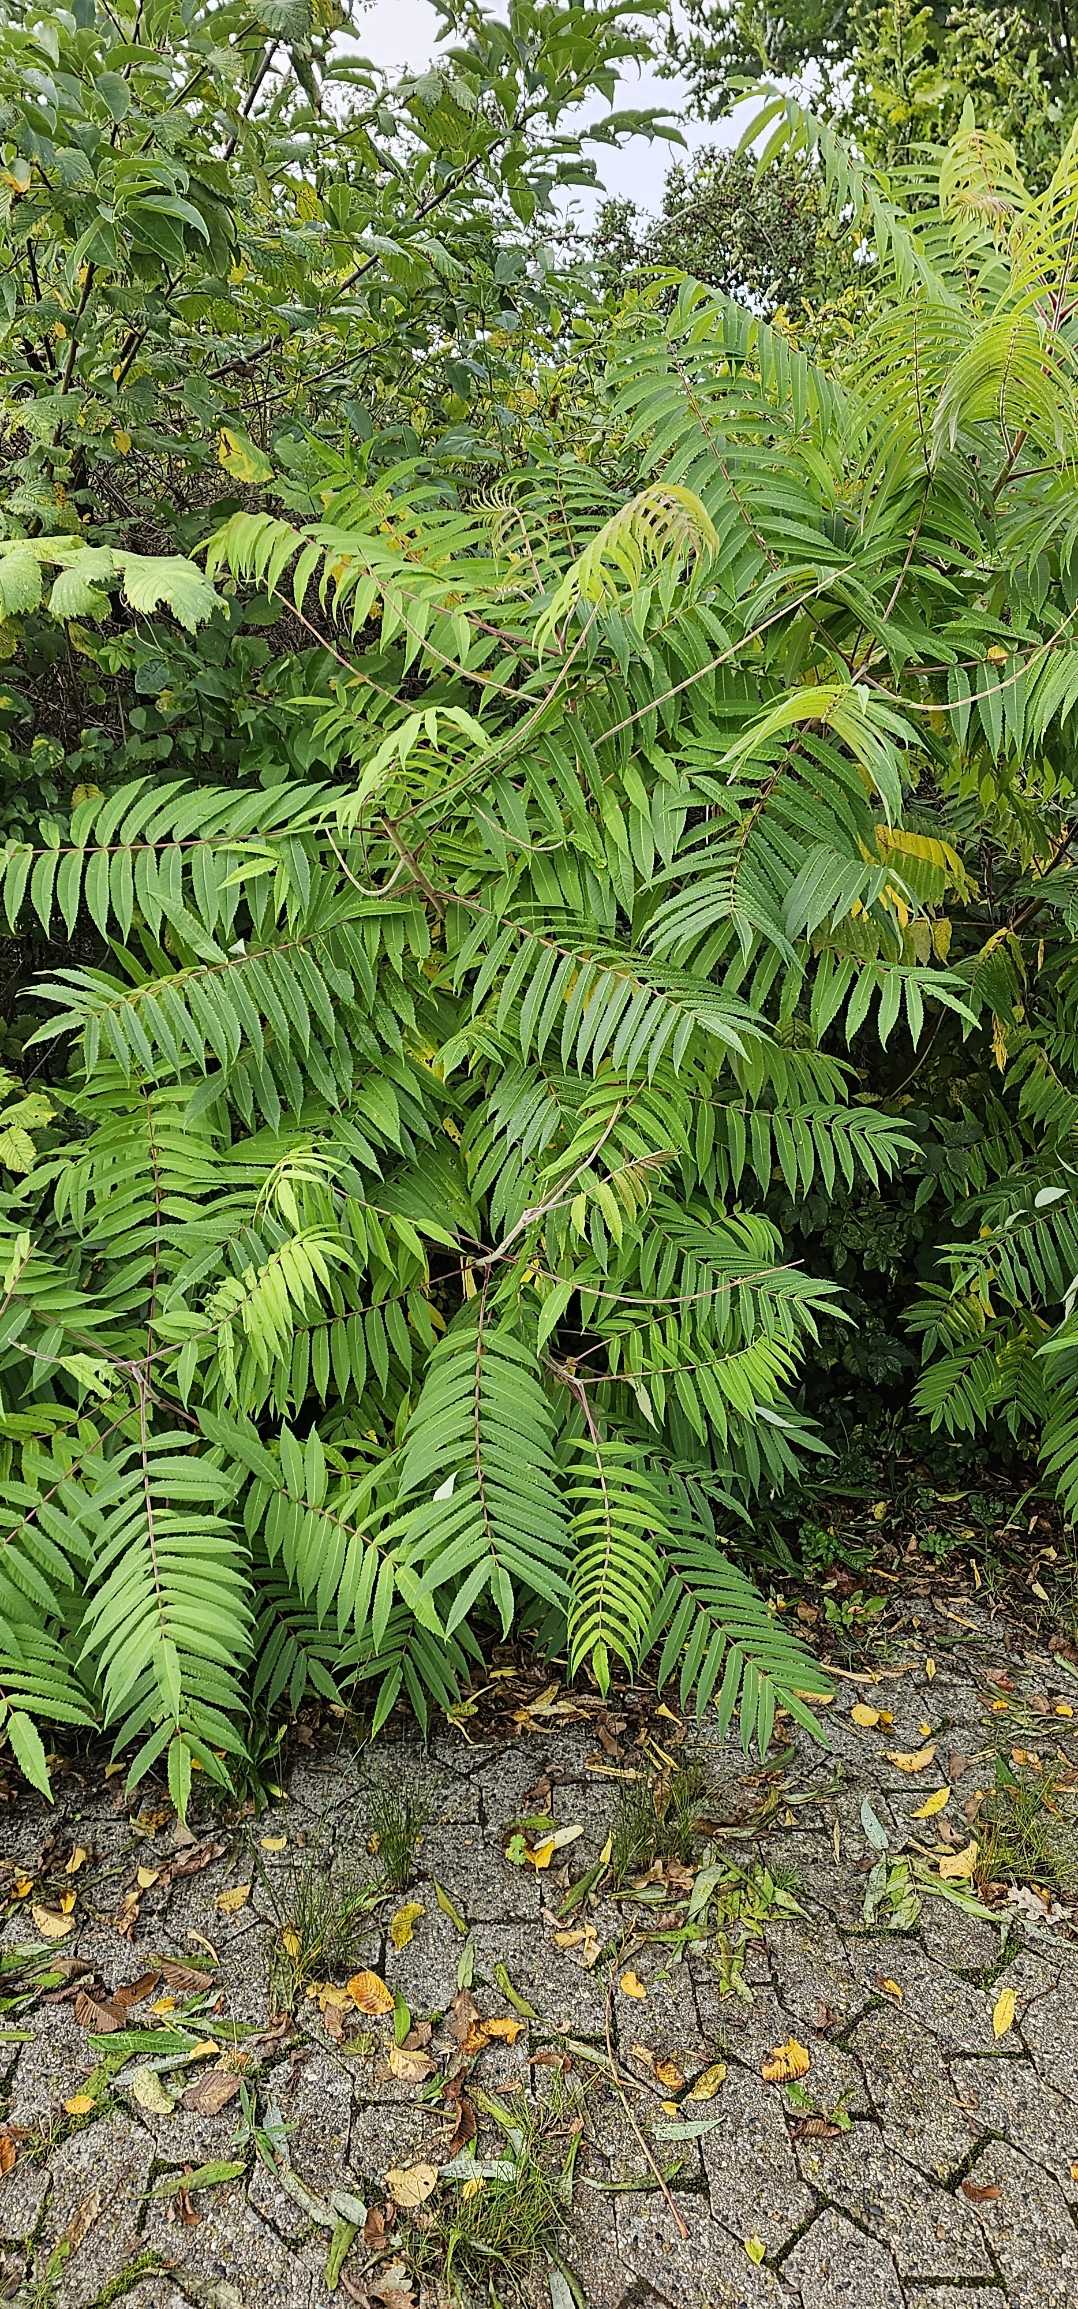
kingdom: Plantae
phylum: Tracheophyta
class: Magnoliopsida
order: Sapindales
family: Anacardiaceae
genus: Rhus
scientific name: Rhus typhina
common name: Hjortetaktræ
